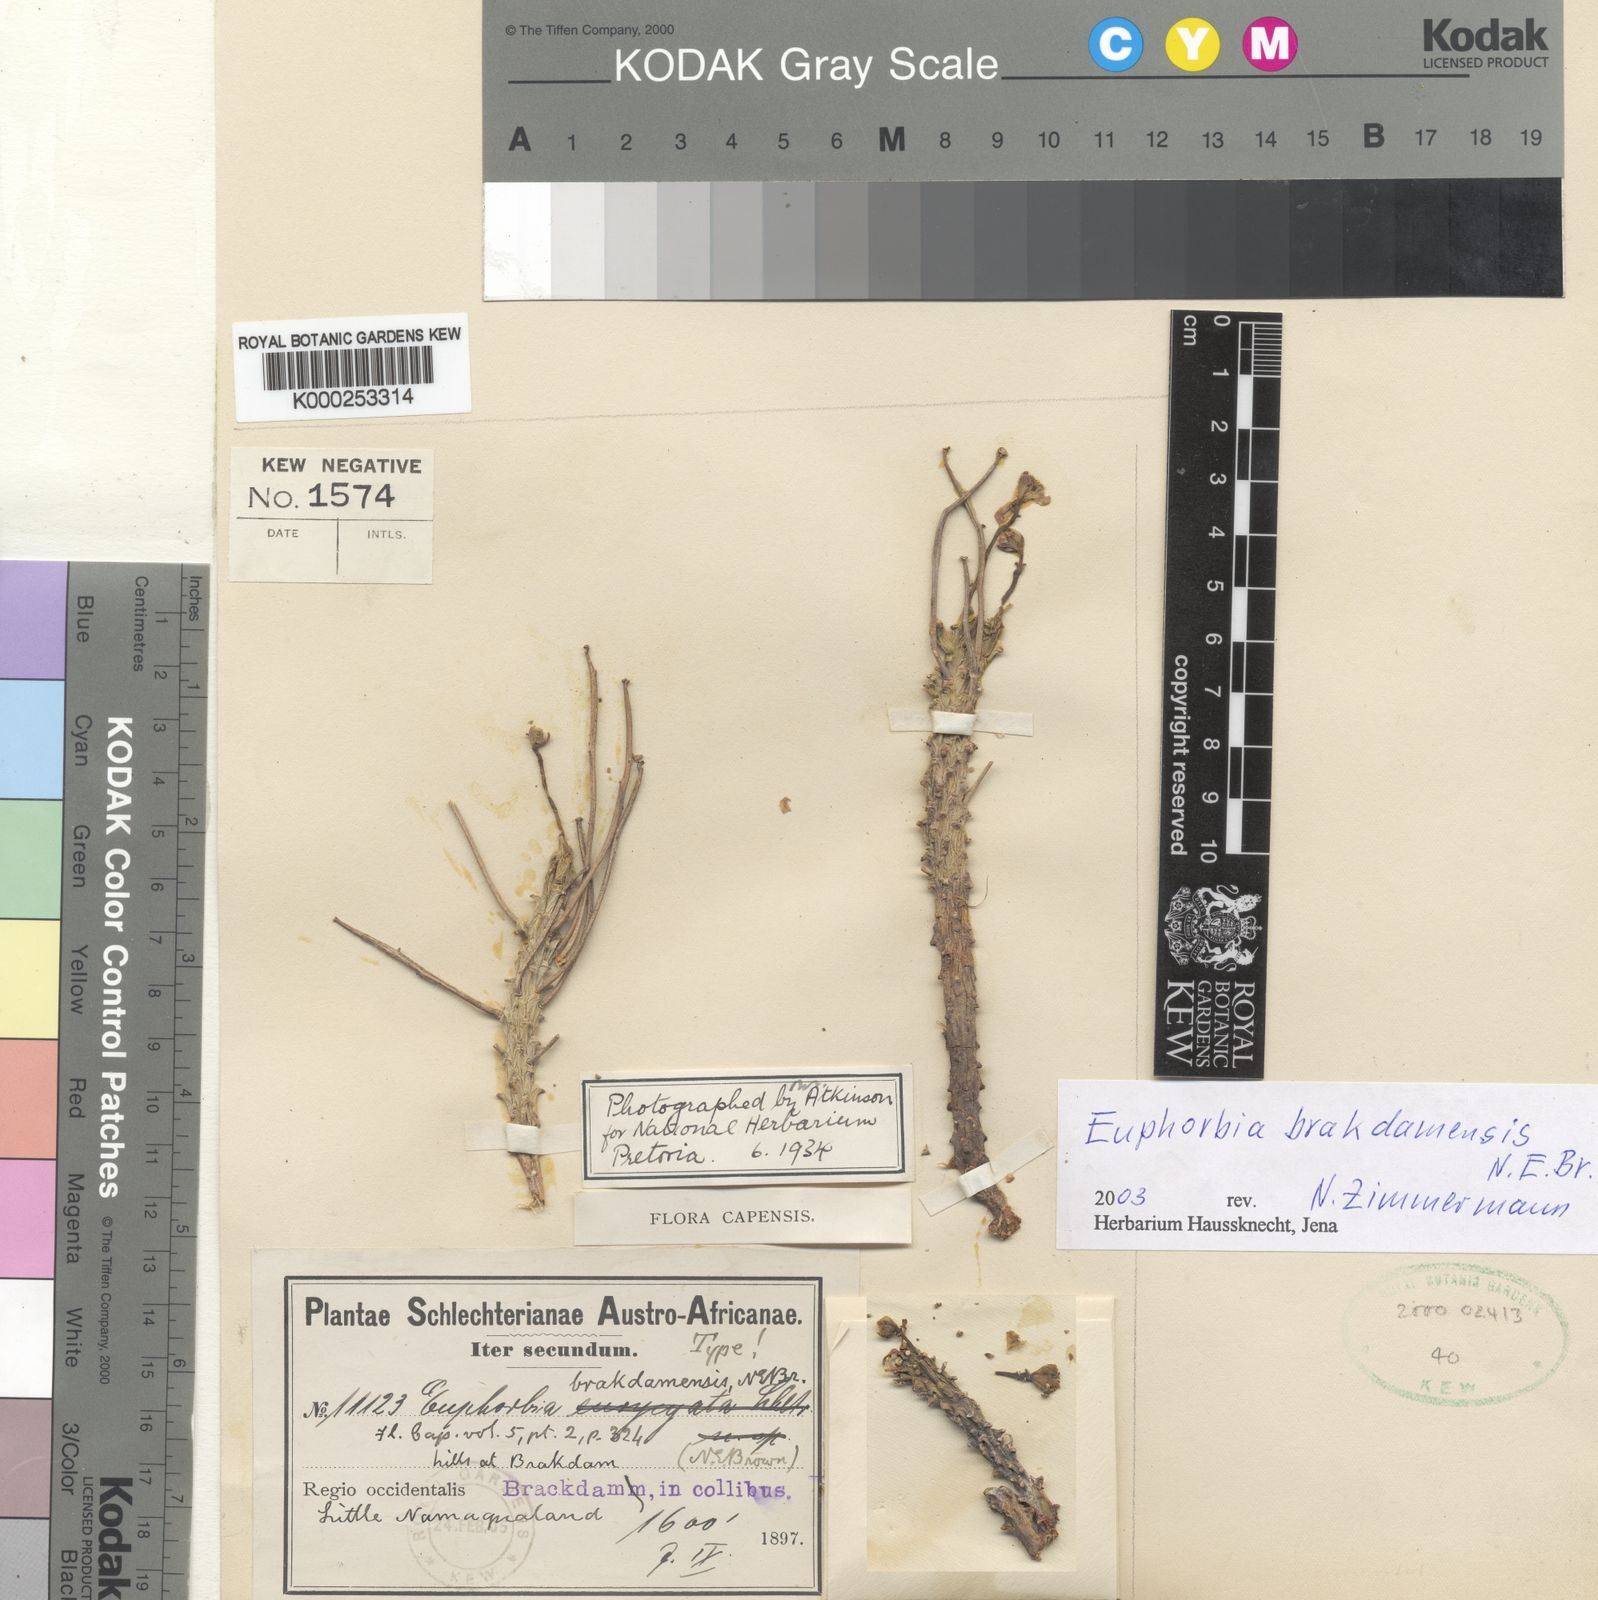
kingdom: Plantae
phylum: Tracheophyta
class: Magnoliopsida
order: Malpighiales
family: Euphorbiaceae
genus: Euphorbia
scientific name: Euphorbia brakdamensis
